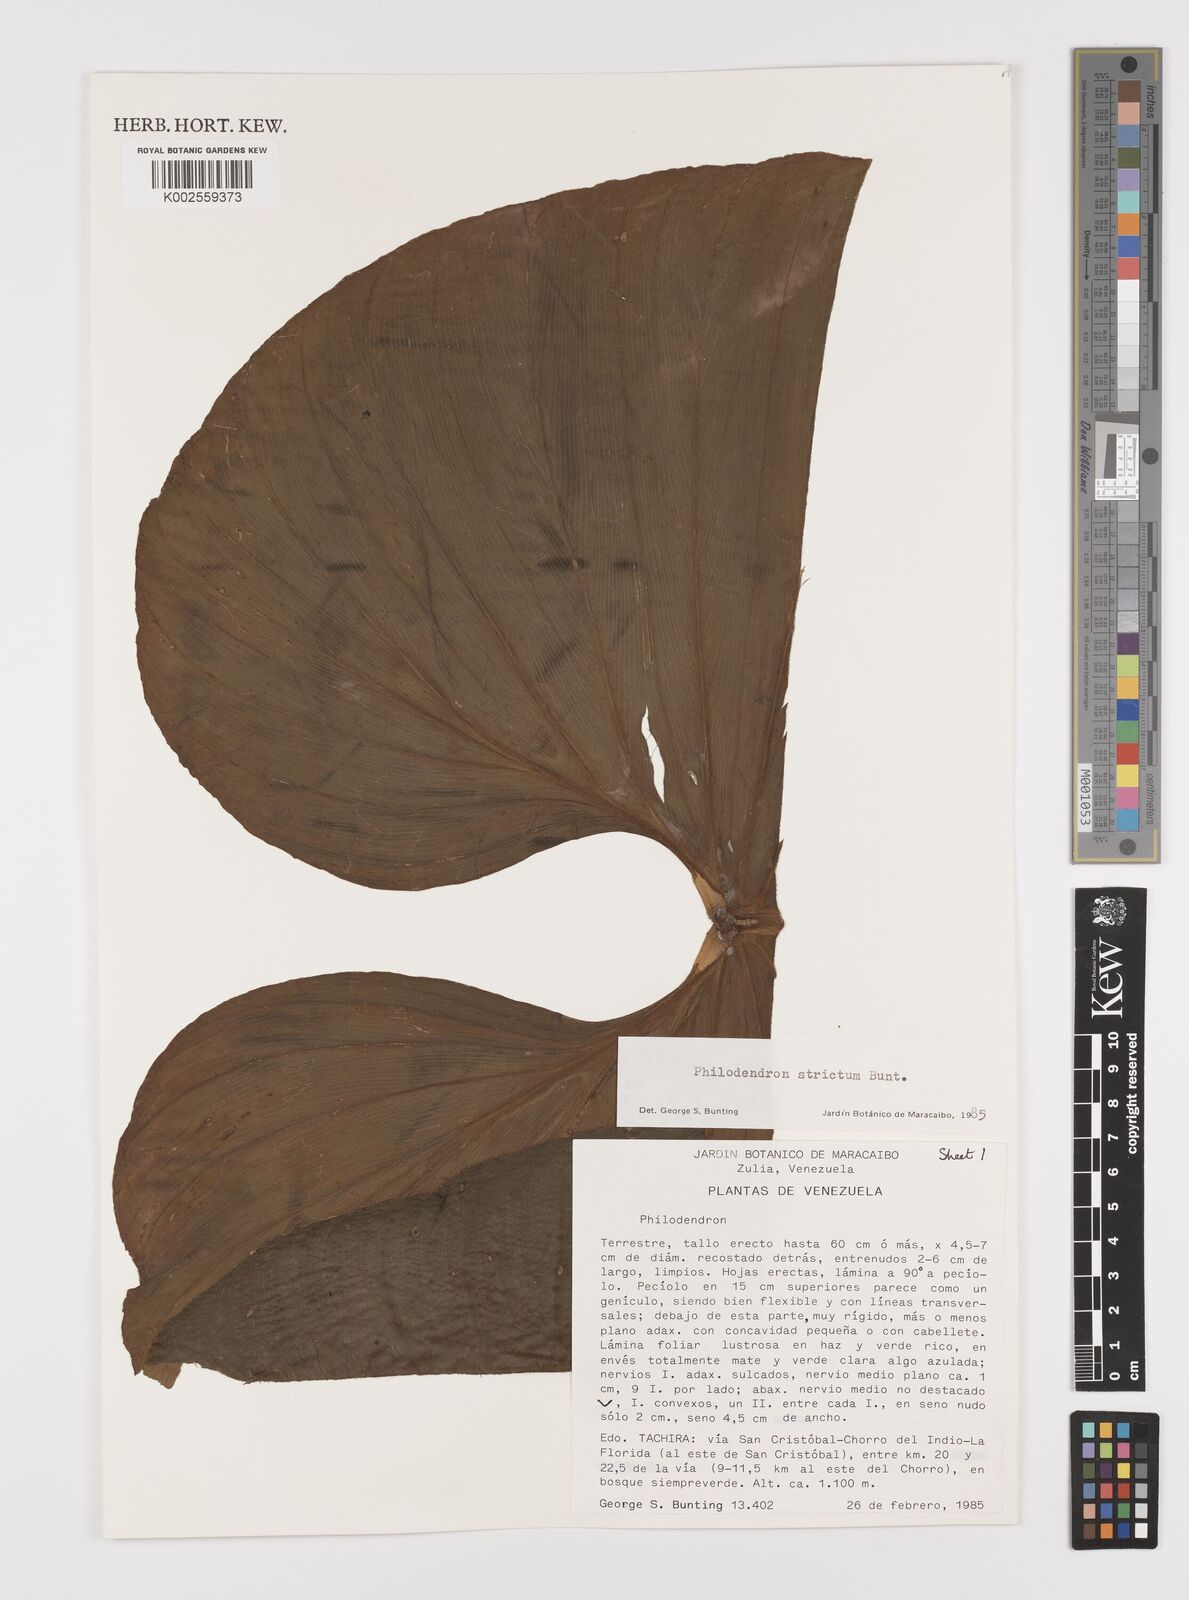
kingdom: Plantae
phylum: Tracheophyta
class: Liliopsida
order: Alismatales
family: Araceae
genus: Philodendron
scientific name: Philodendron strictum
